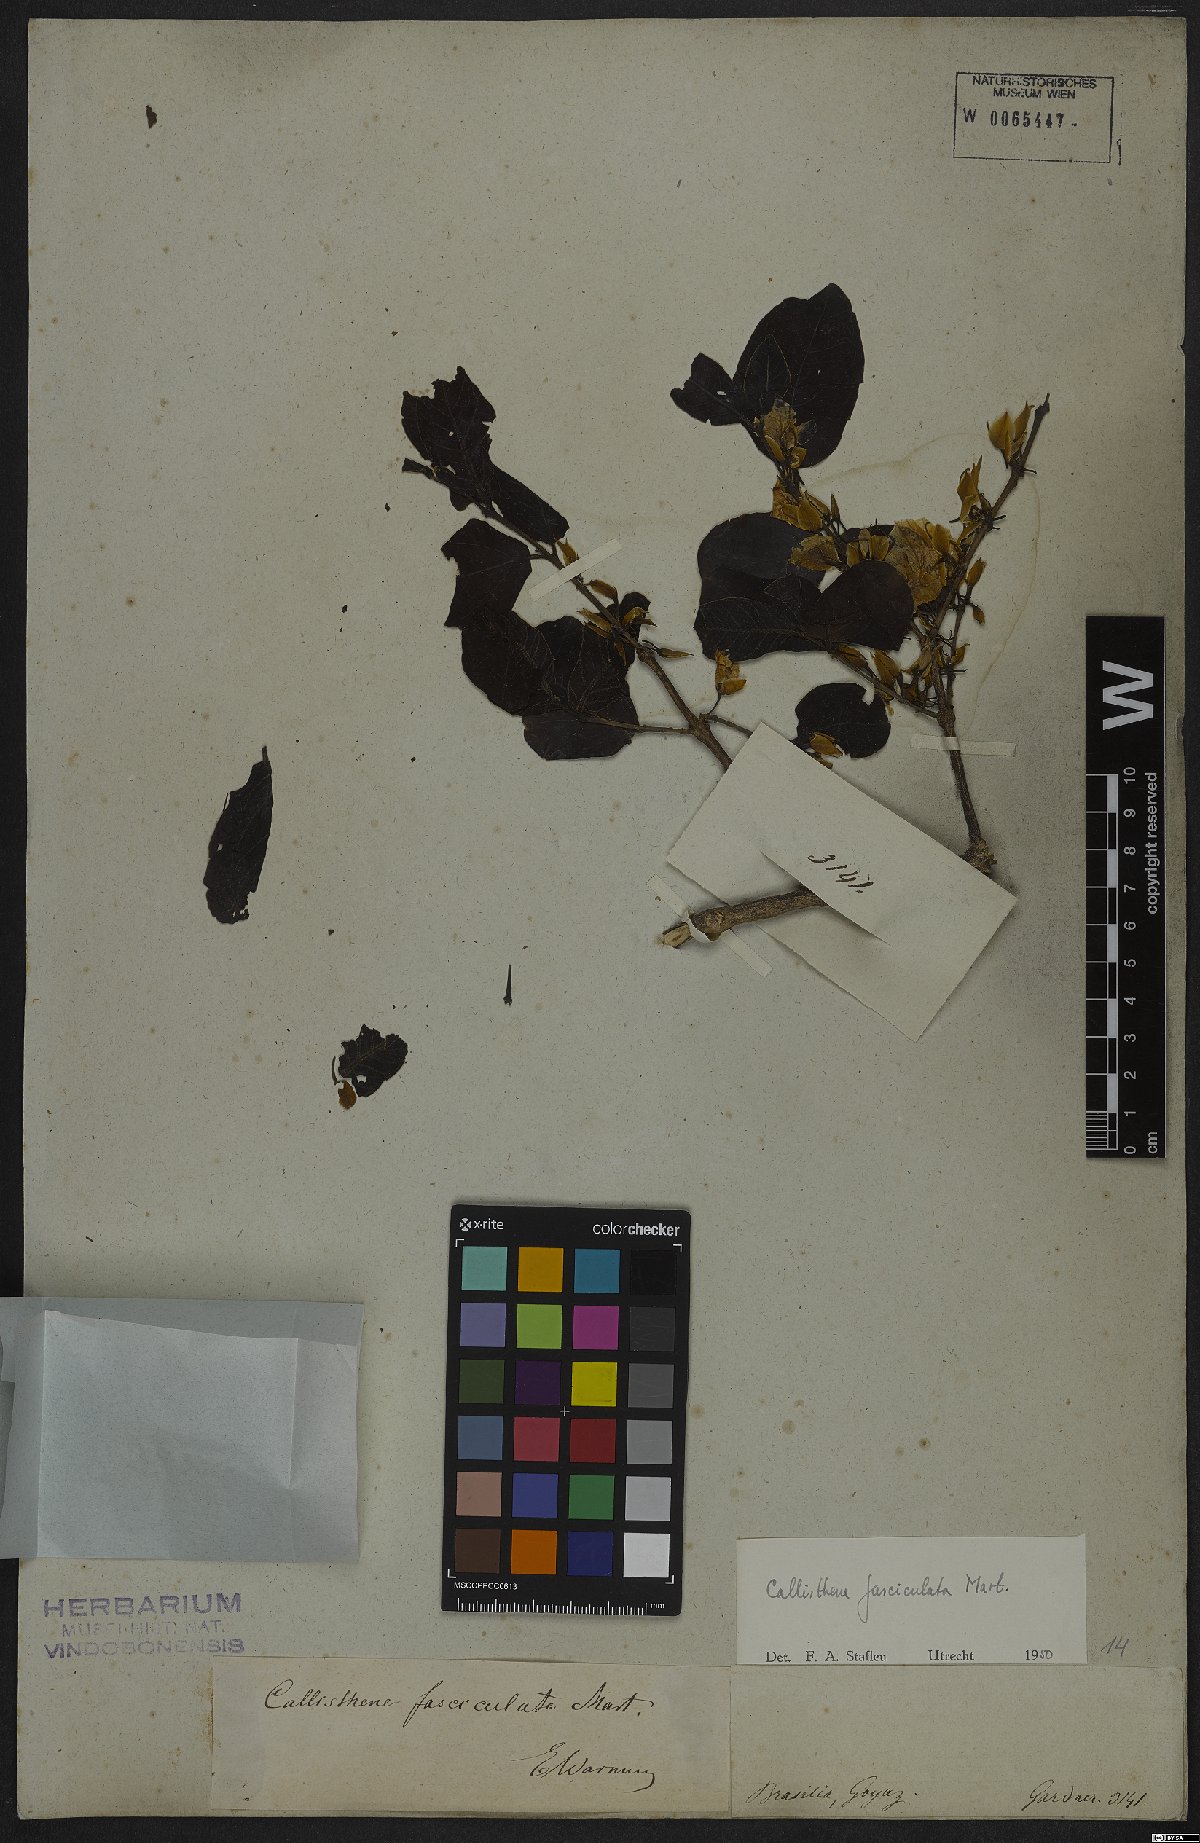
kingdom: Plantae
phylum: Tracheophyta
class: Magnoliopsida
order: Myrtales
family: Vochysiaceae
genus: Callisthene
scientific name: Callisthene fasciculata
